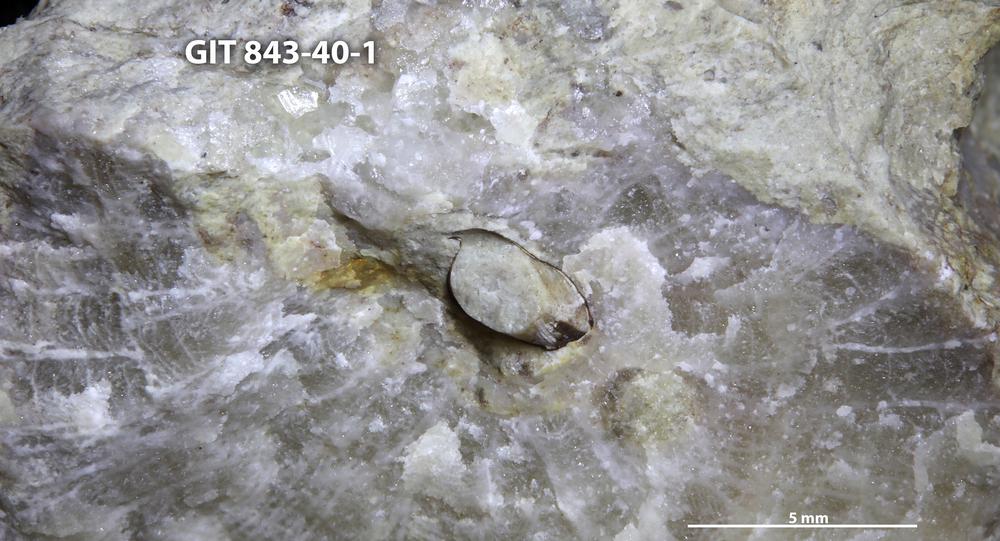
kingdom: Animalia
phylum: Brachiopoda
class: Lingulata
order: Lingulida
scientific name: Lingulida
